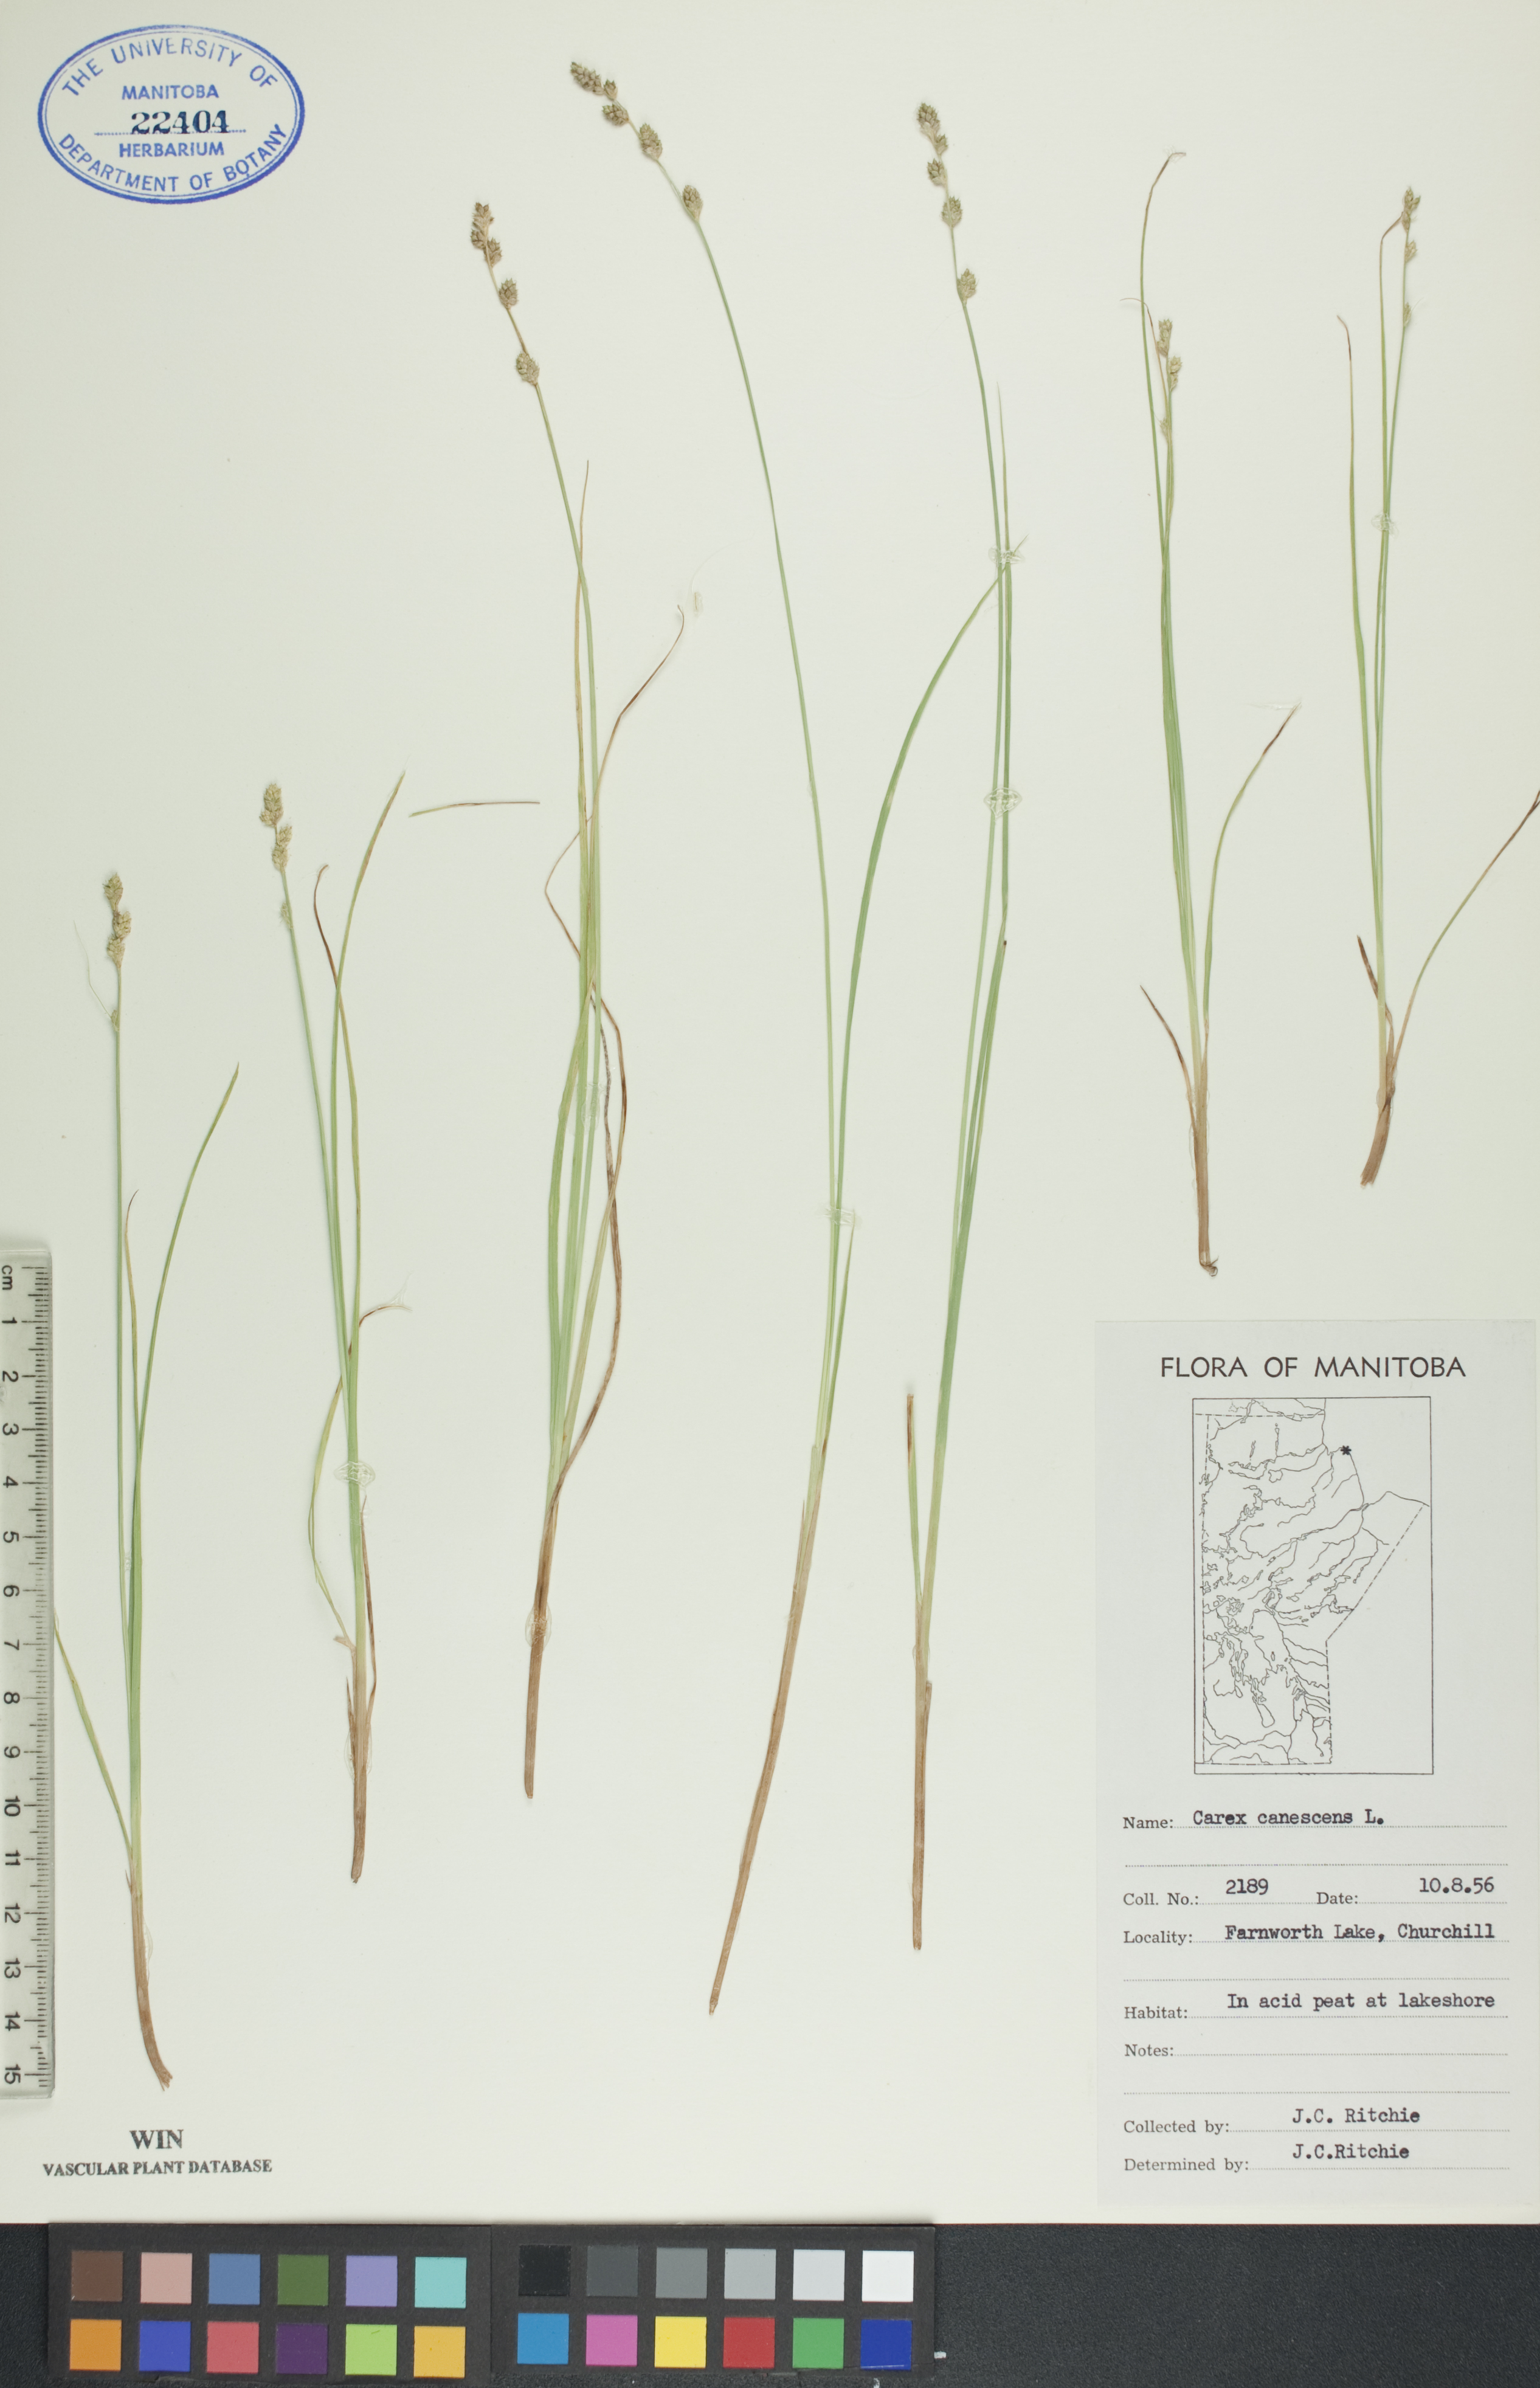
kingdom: Plantae
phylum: Tracheophyta
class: Liliopsida
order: Poales
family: Cyperaceae
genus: Carex
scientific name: Carex canescens
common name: White sedge
